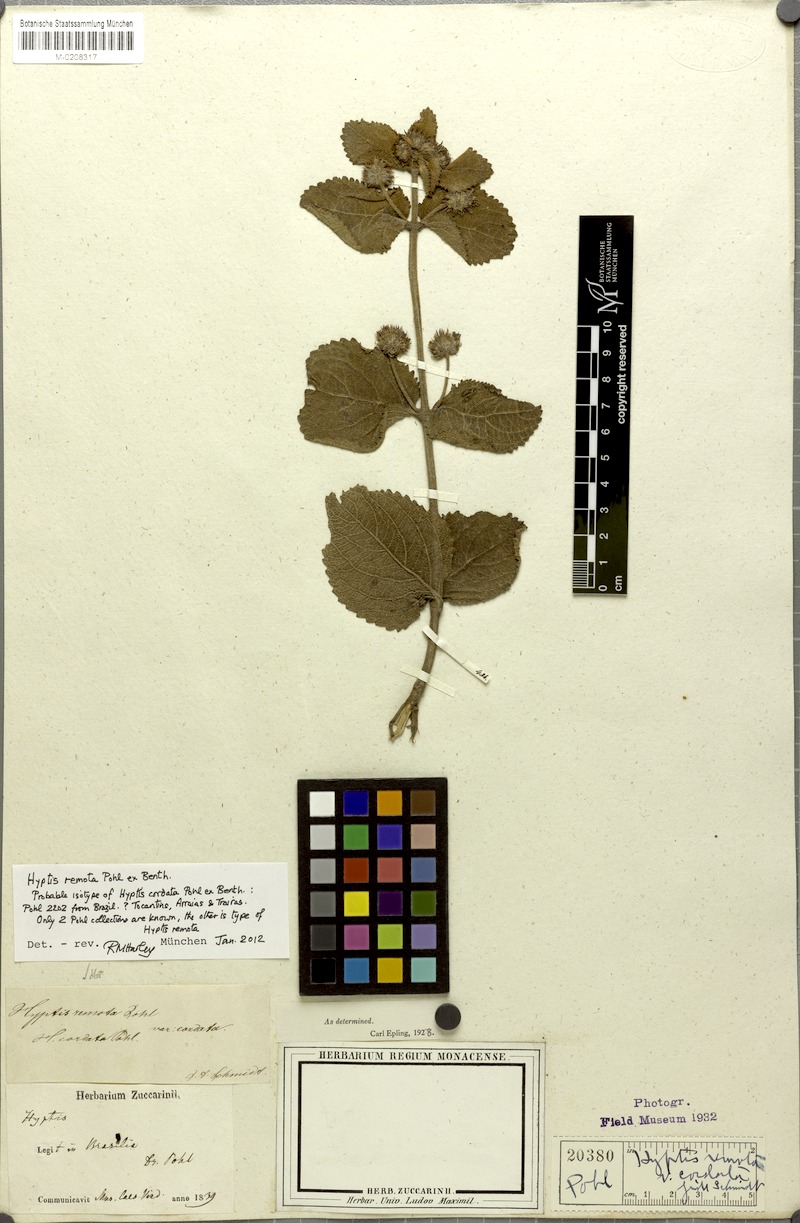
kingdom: Plantae
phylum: Tracheophyta
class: Magnoliopsida
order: Lamiales
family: Lamiaceae
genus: Hyptis
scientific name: Hyptis remota
